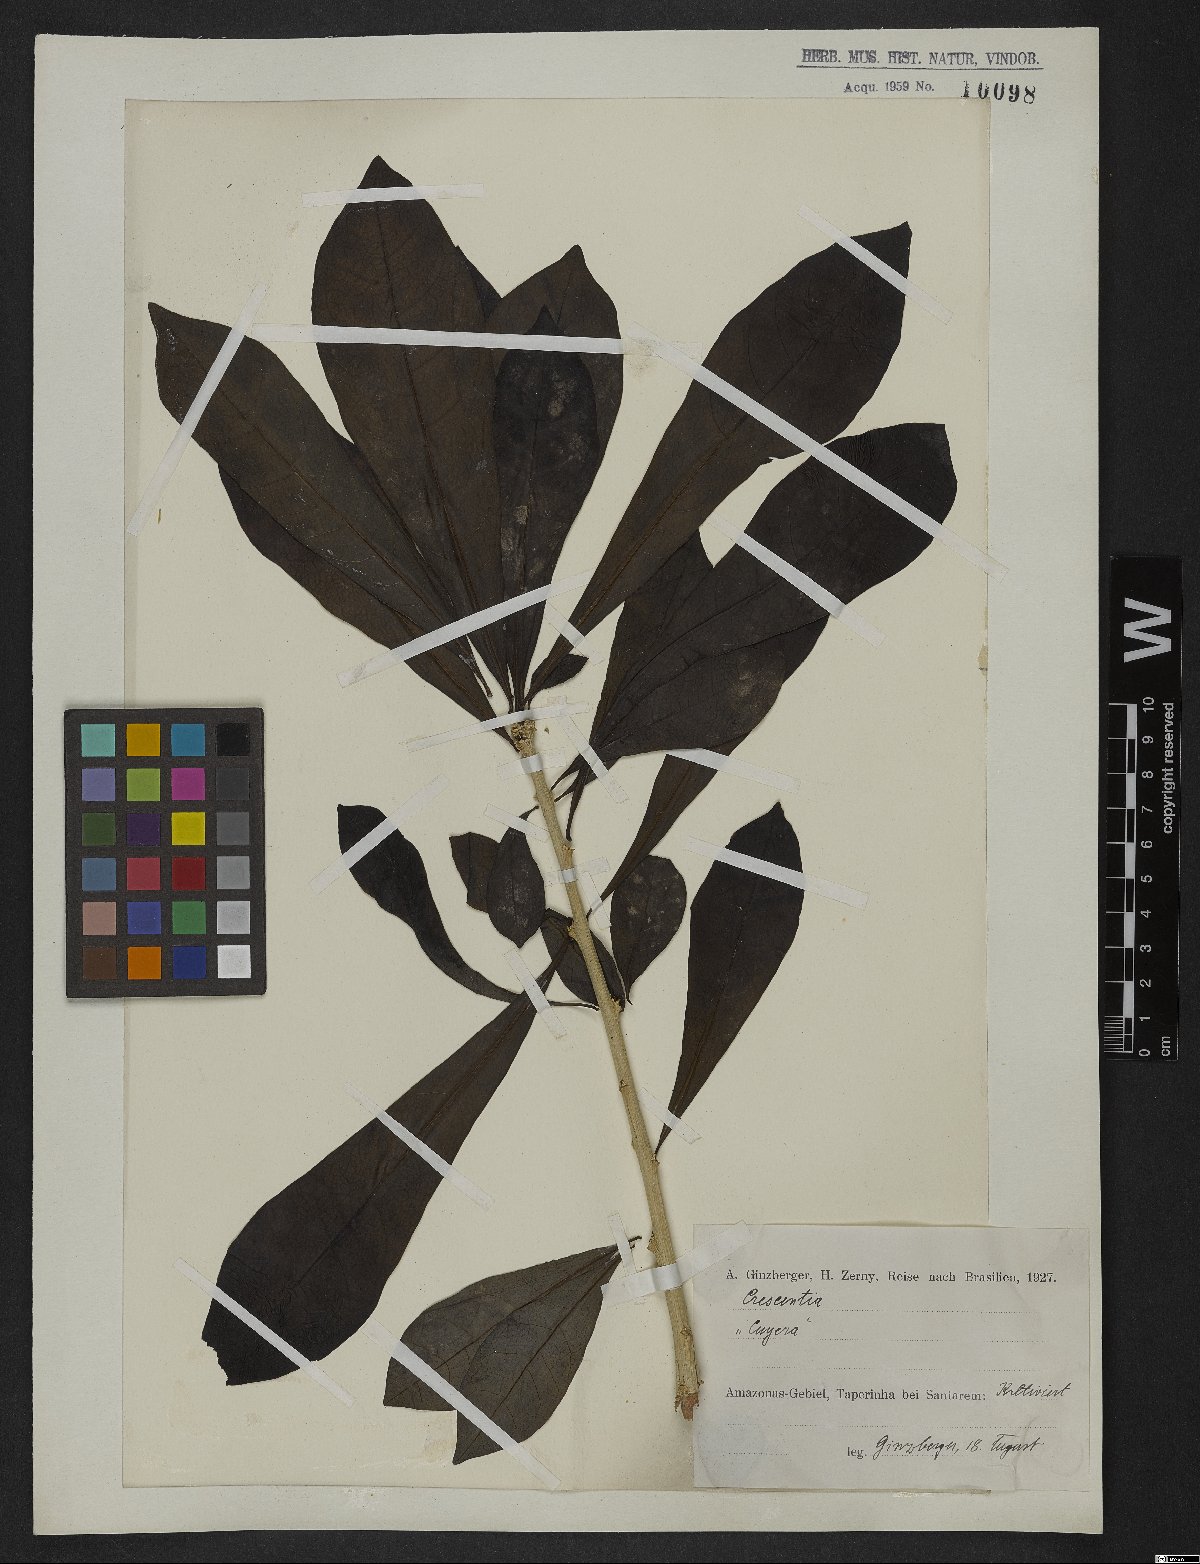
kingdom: Plantae
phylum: Tracheophyta
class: Magnoliopsida
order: Lamiales
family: Bignoniaceae
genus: Crescentia
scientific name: Crescentia
